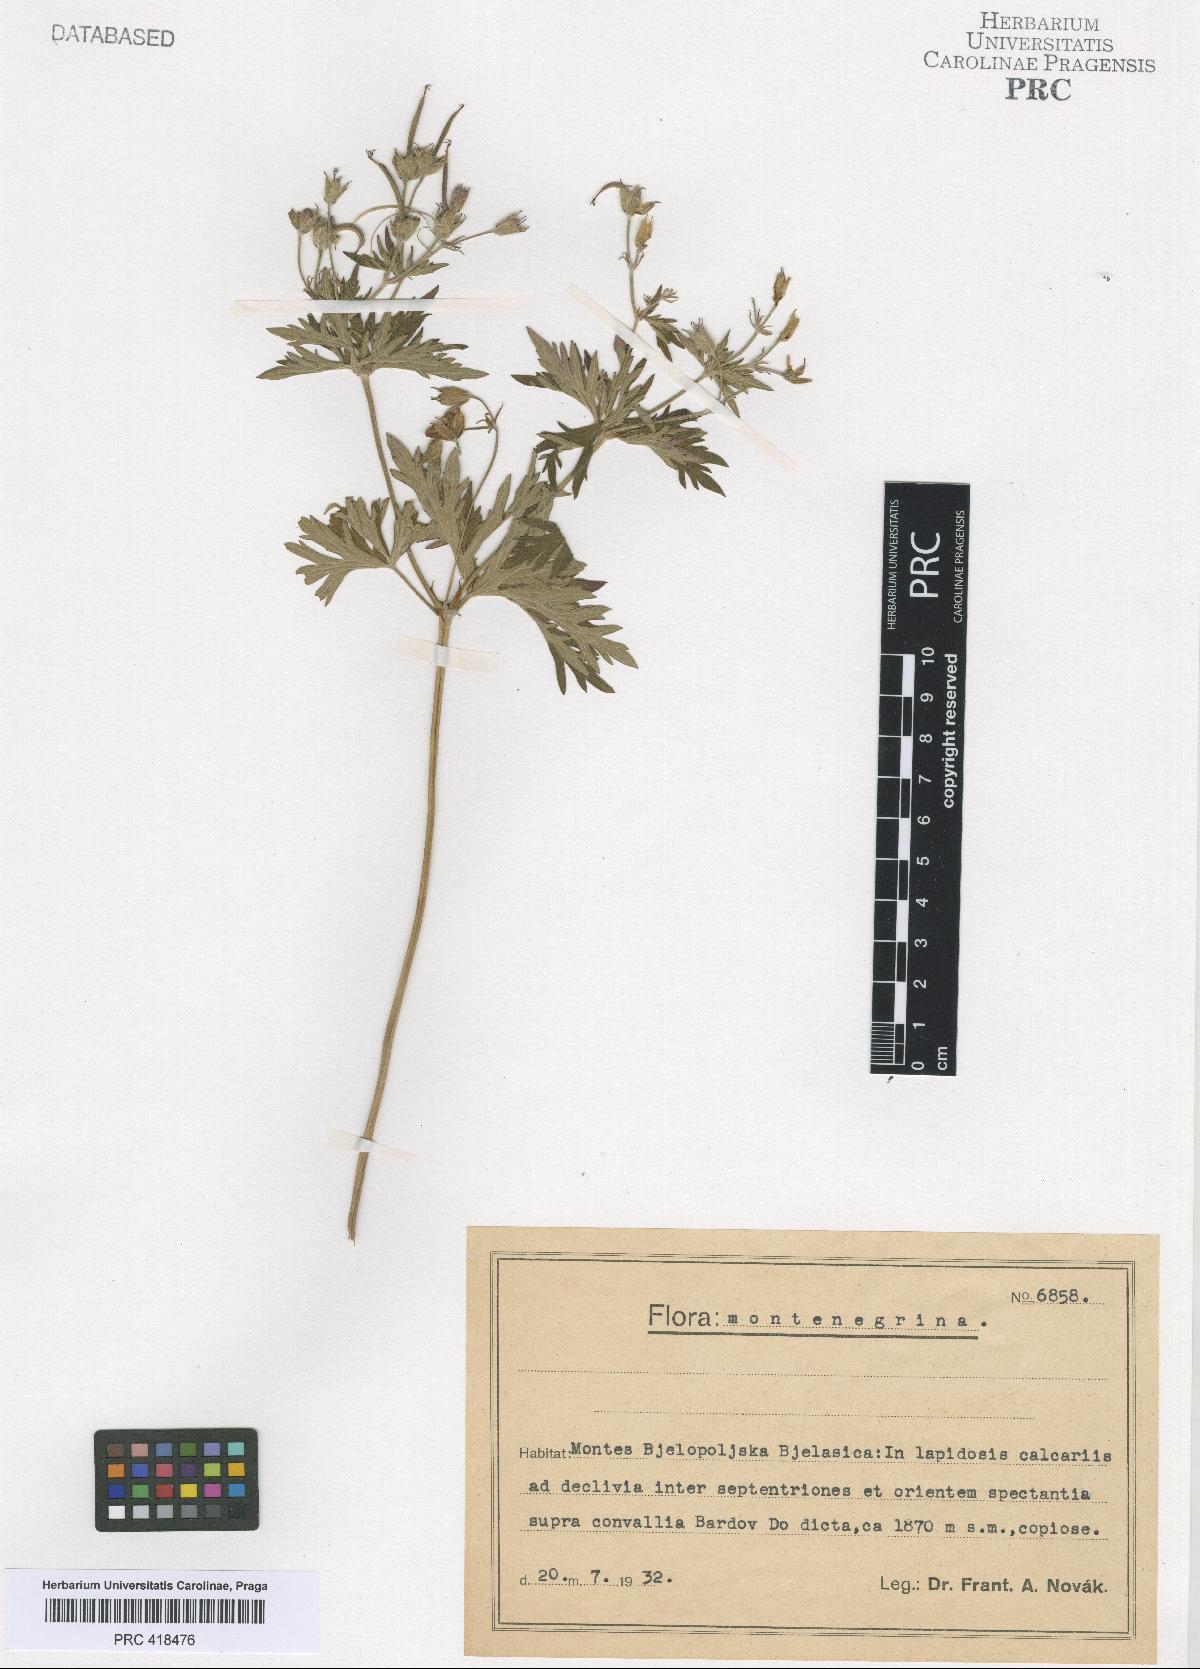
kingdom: Plantae
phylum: Tracheophyta
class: Magnoliopsida
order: Geraniales
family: Geraniaceae
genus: Geranium
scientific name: Geranium caeruleatum
